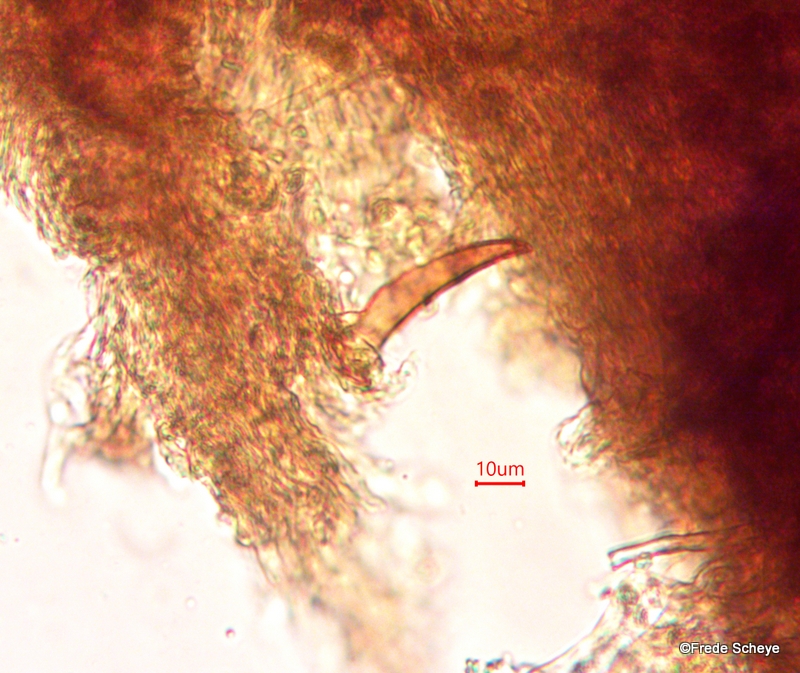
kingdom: Fungi
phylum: Basidiomycota
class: Agaricomycetes
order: Hymenochaetales
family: Hymenochaetaceae
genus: Xanthoporia
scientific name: Xanthoporia radiata
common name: elle-spejlporesvamp
